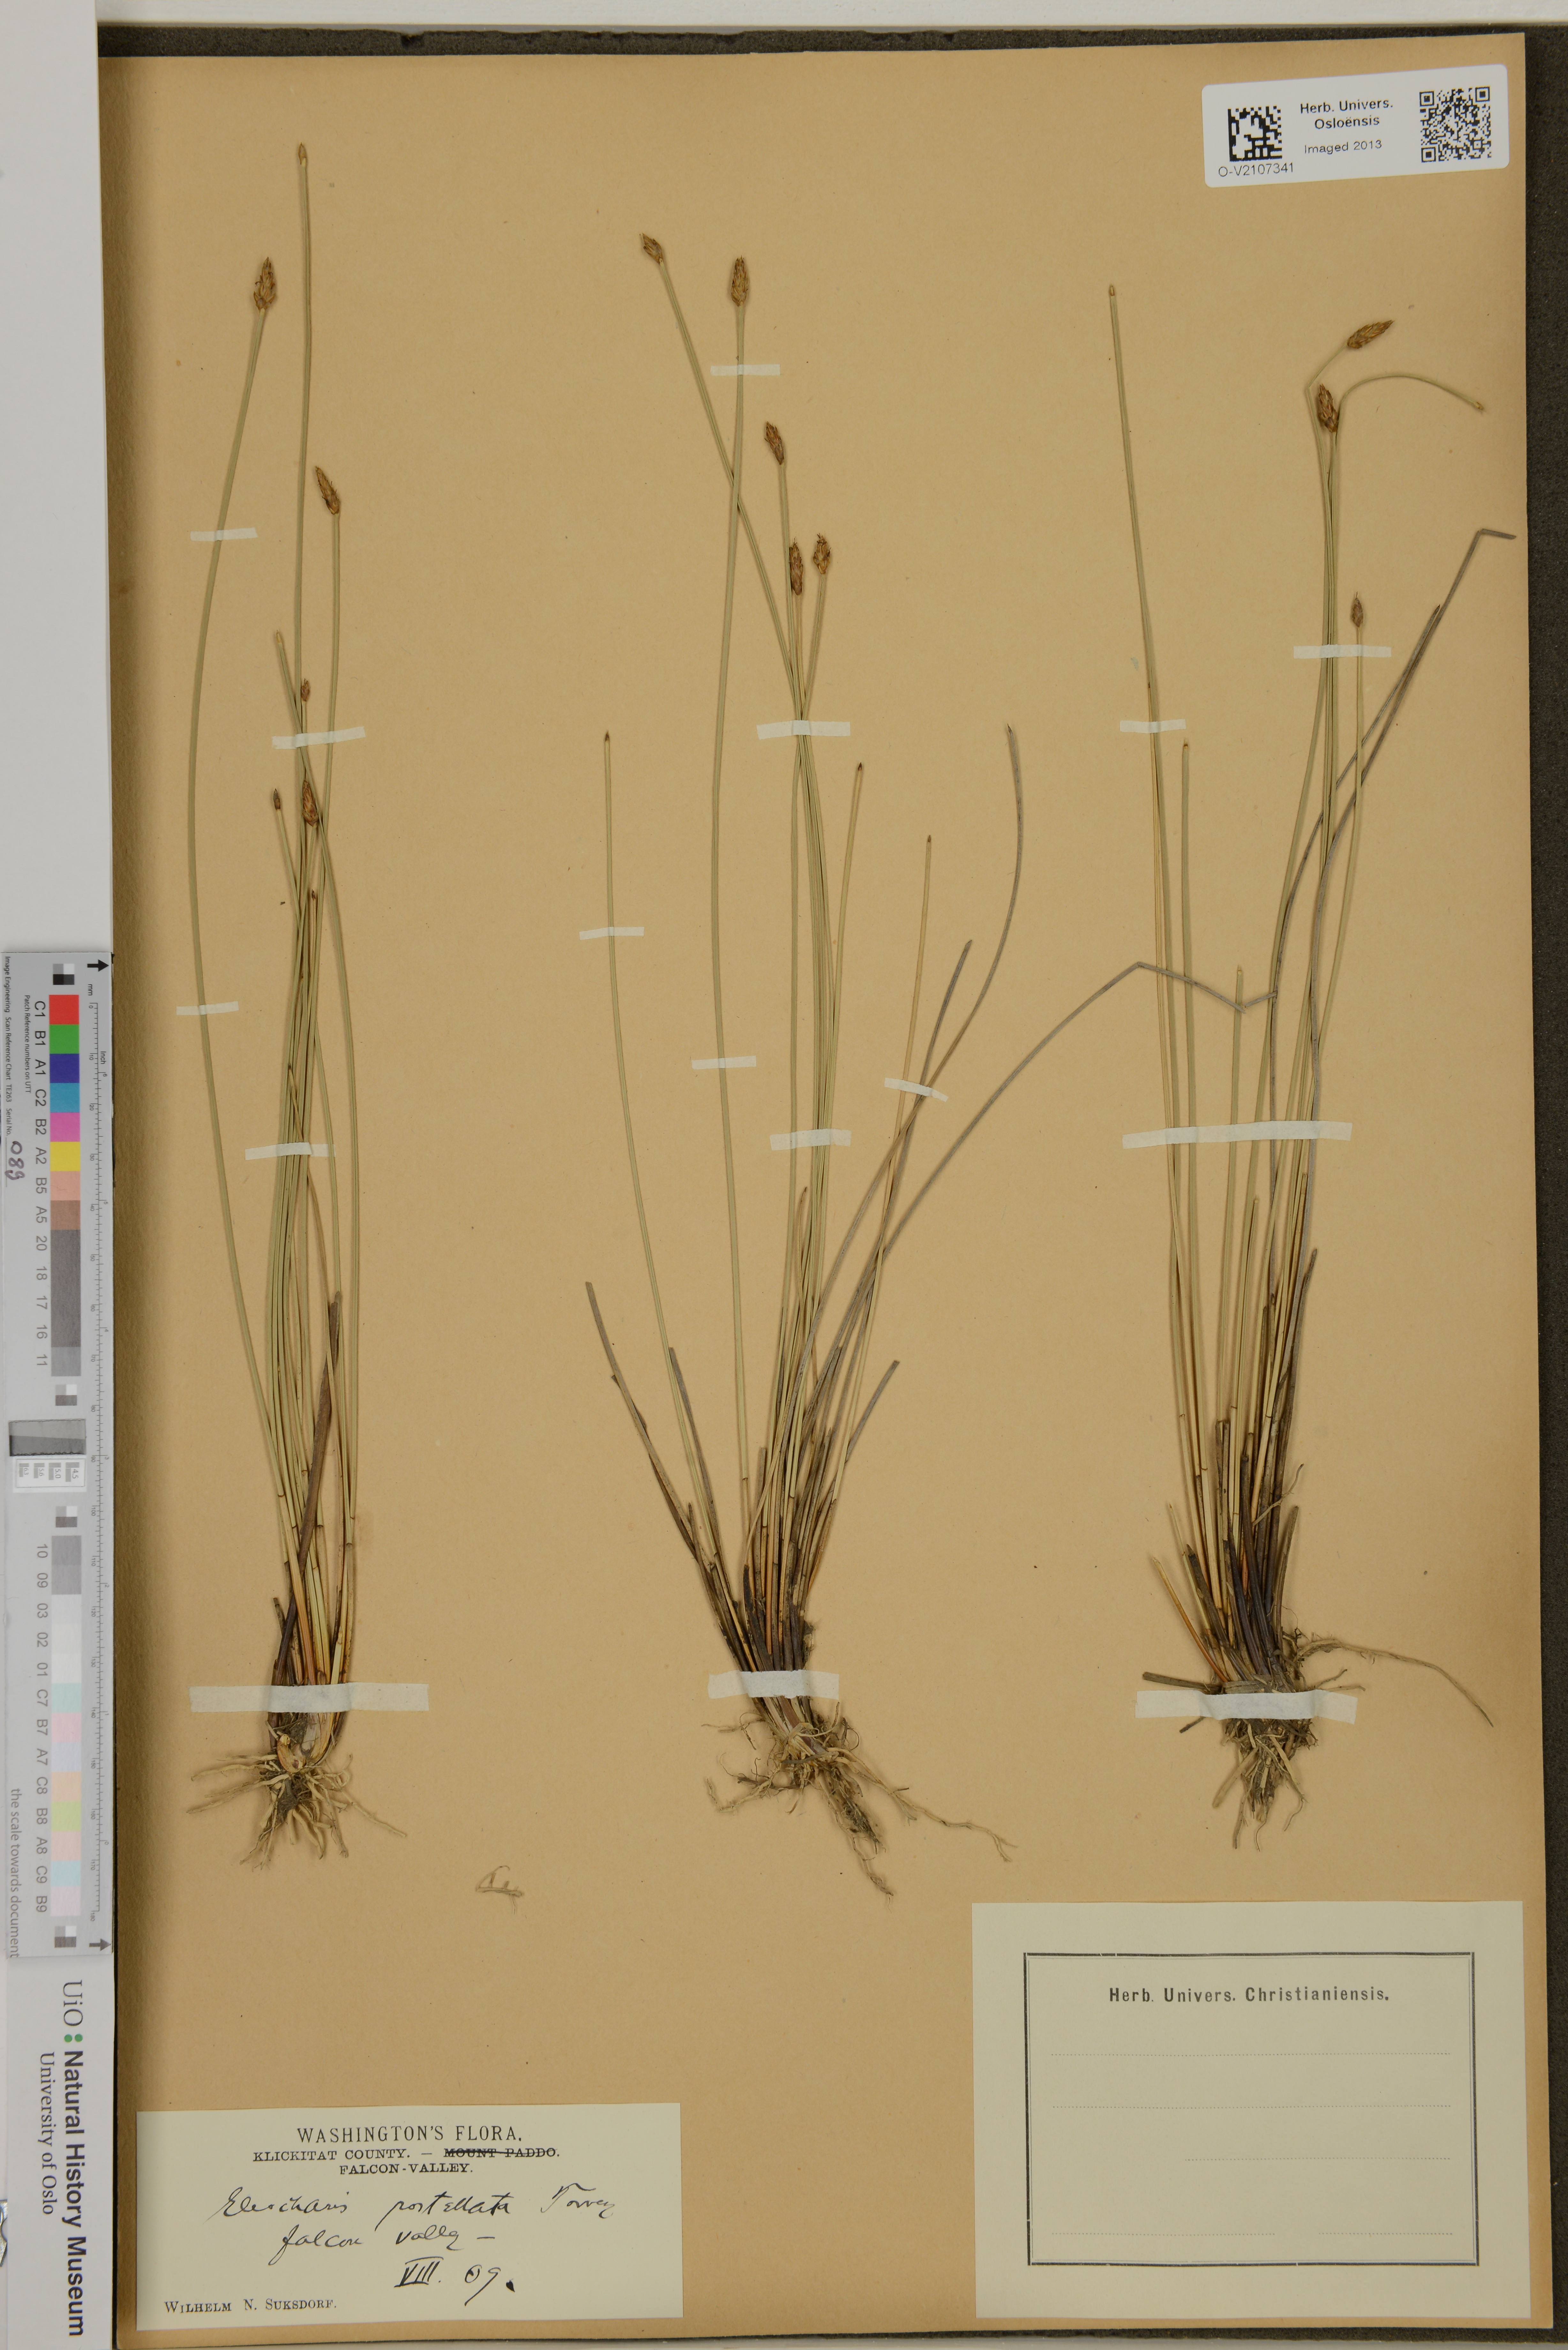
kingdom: Plantae
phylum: Tracheophyta
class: Liliopsida
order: Poales
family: Cyperaceae
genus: Eleocharis
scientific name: Eleocharis rostellata
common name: Walking sedge
